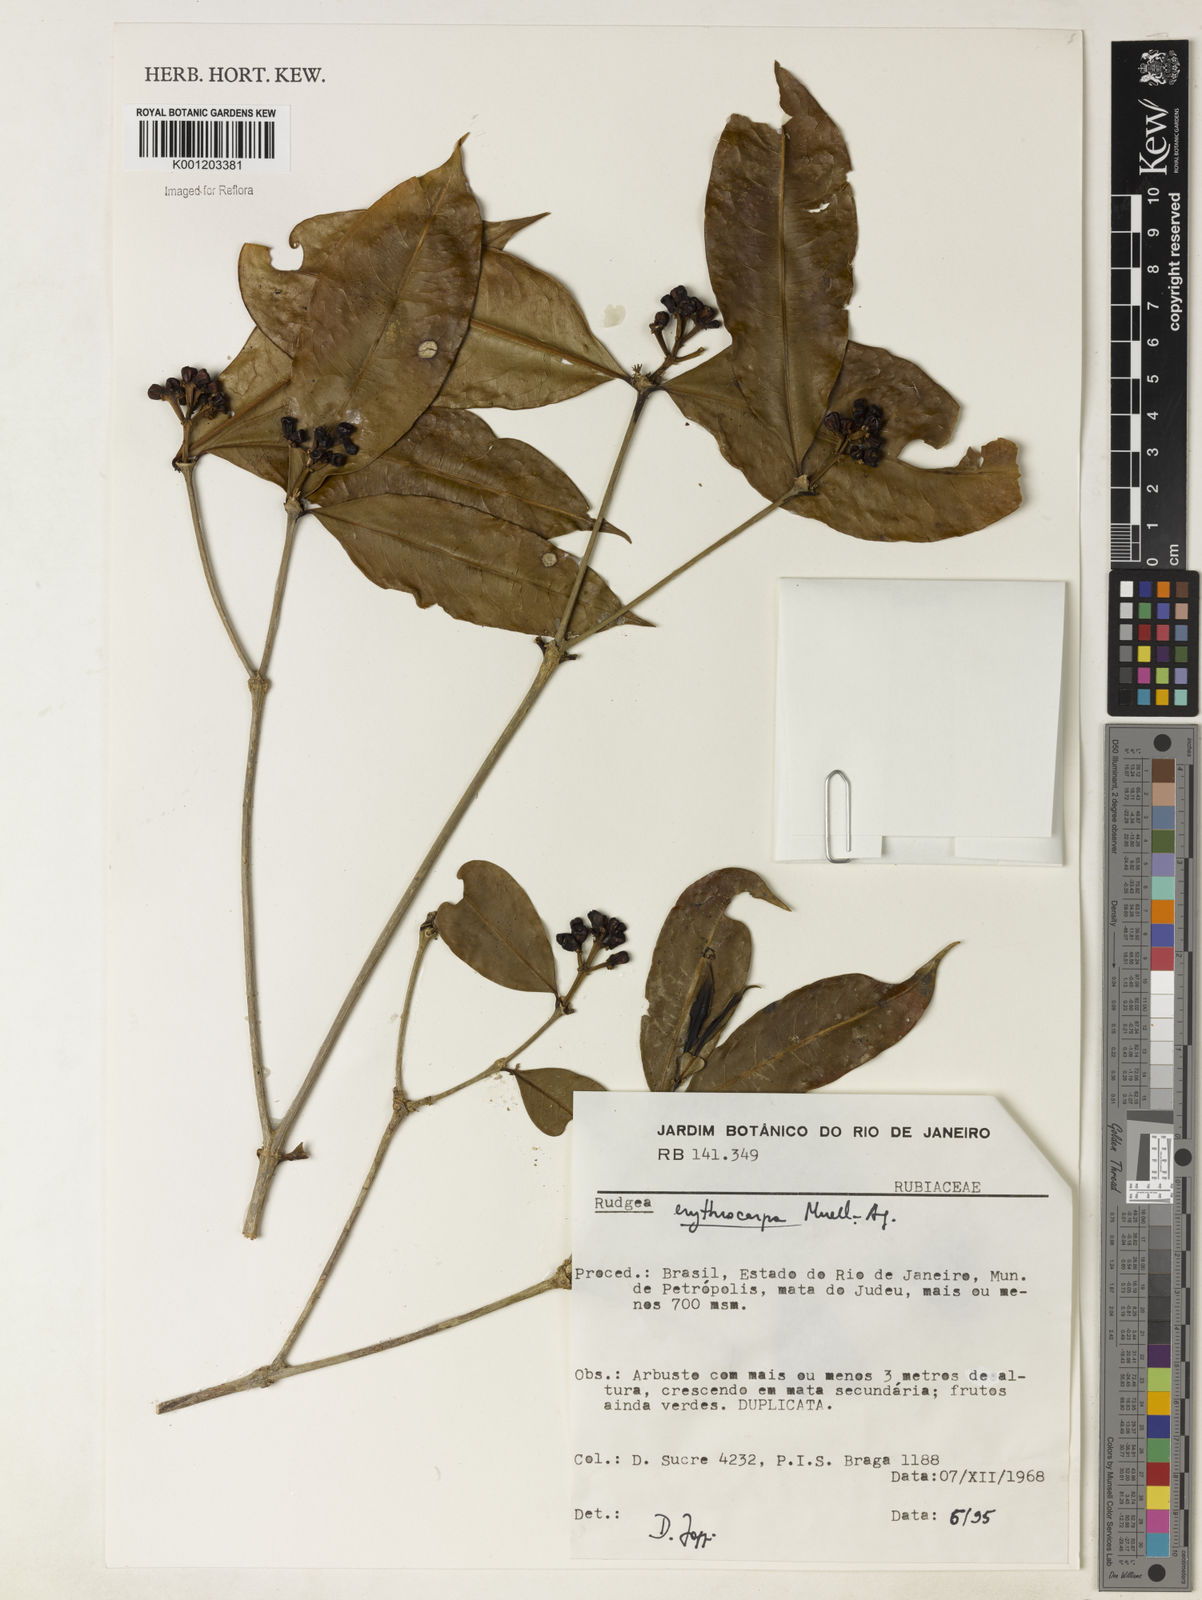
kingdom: Plantae
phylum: Tracheophyta
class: Magnoliopsida
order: Gentianales
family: Rubiaceae
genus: Rudgea
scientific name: Rudgea
